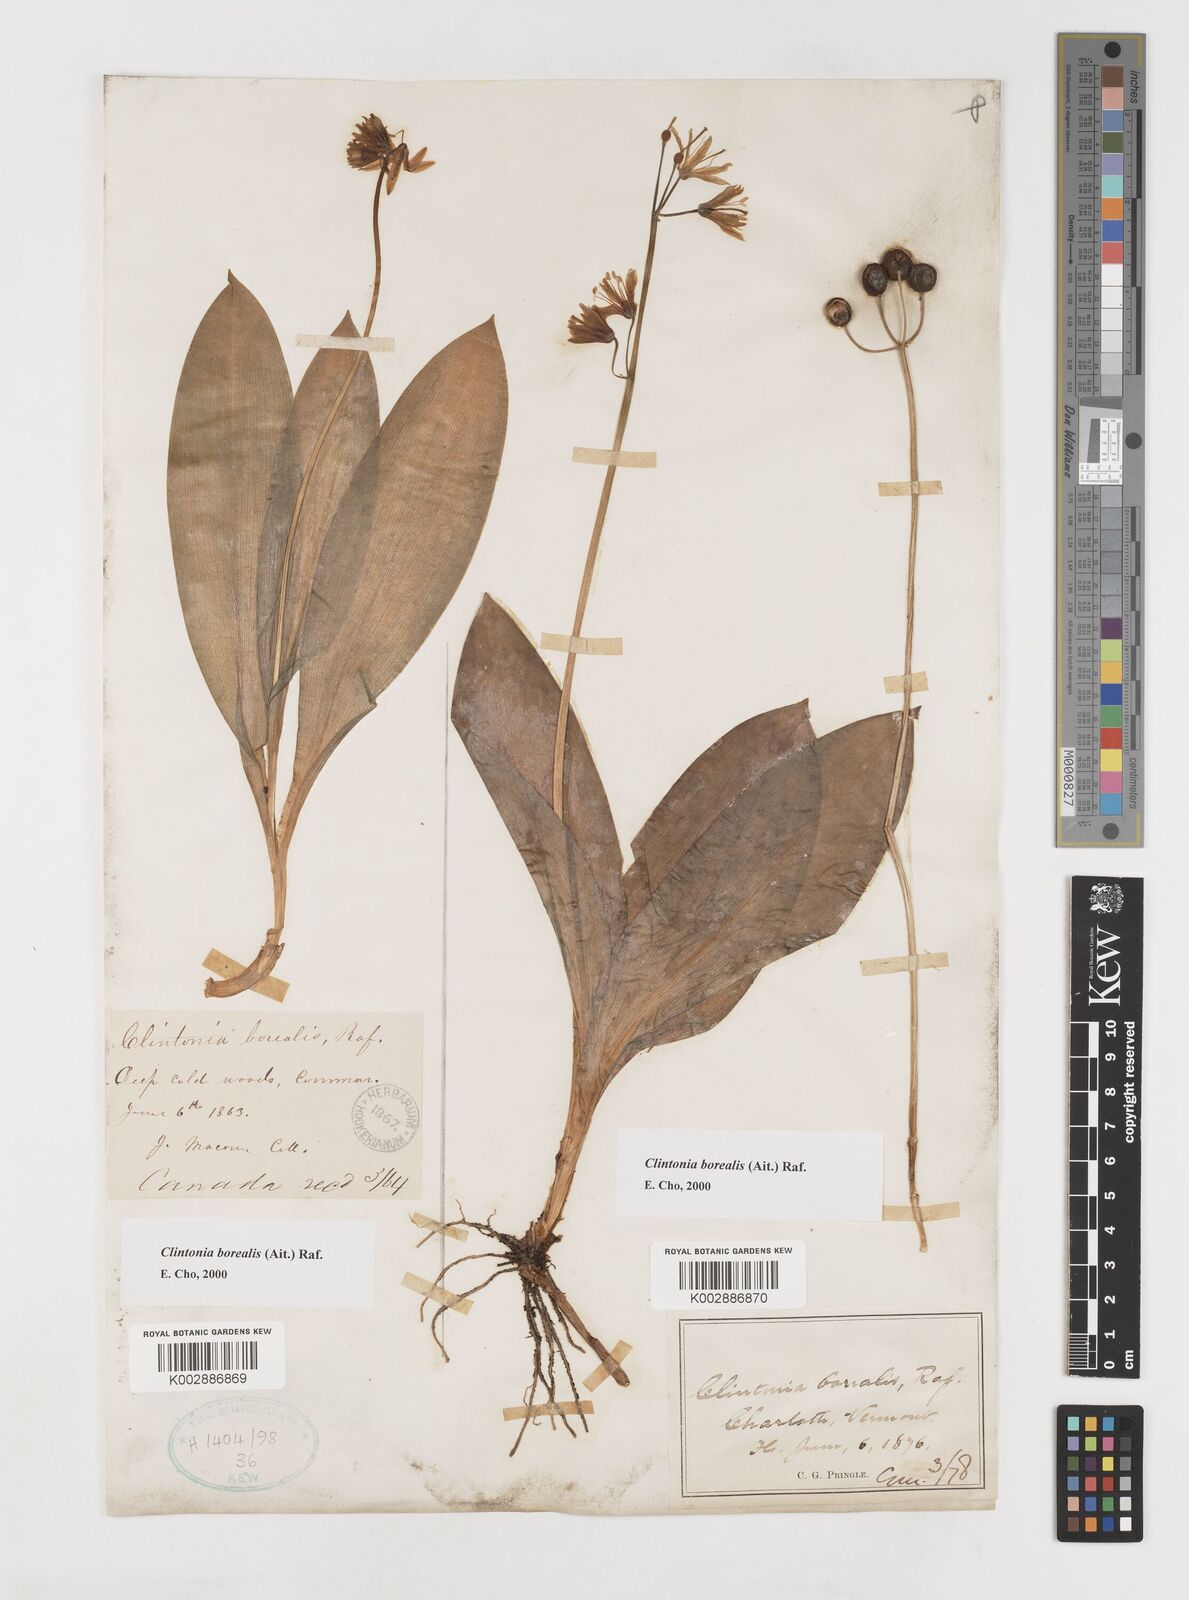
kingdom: Plantae
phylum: Tracheophyta
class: Liliopsida
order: Liliales
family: Liliaceae
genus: Clintonia
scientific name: Clintonia borealis
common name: Yellow clintonia
